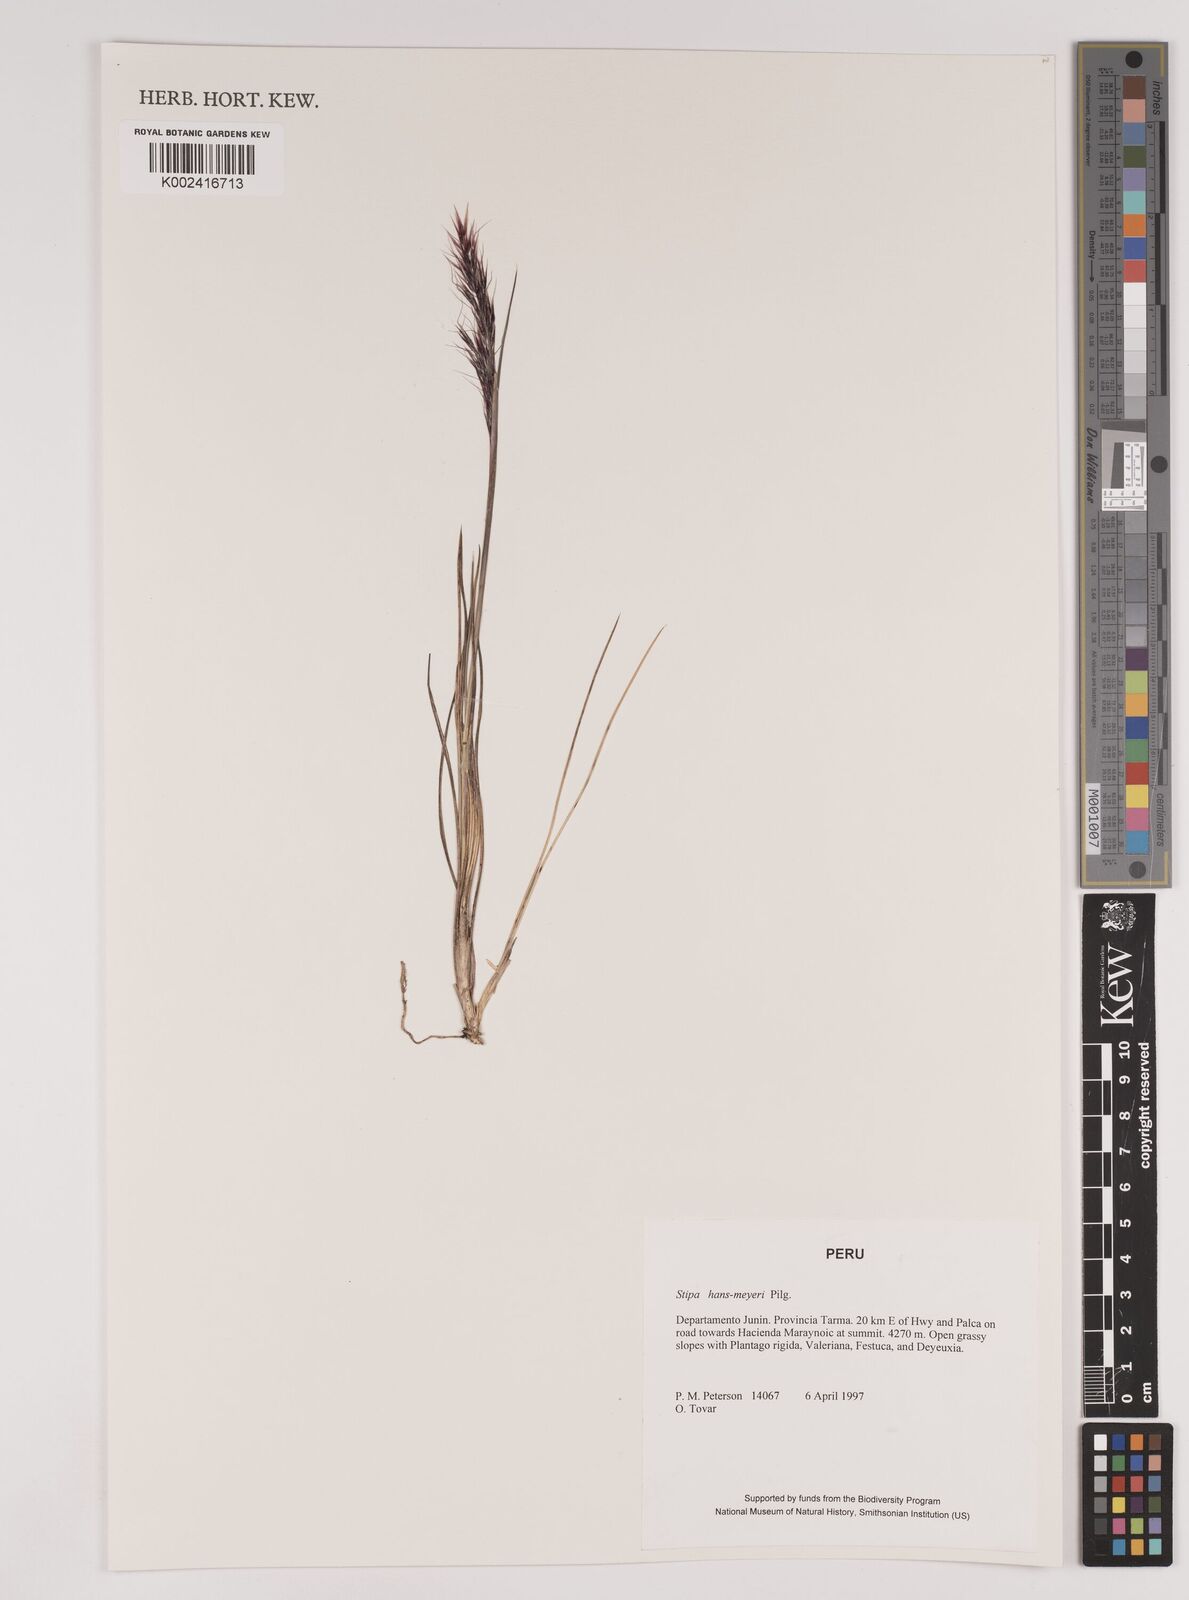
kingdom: Plantae
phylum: Tracheophyta
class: Liliopsida
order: Poales
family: Poaceae
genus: Stipa
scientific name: Stipa hans-meyeri
